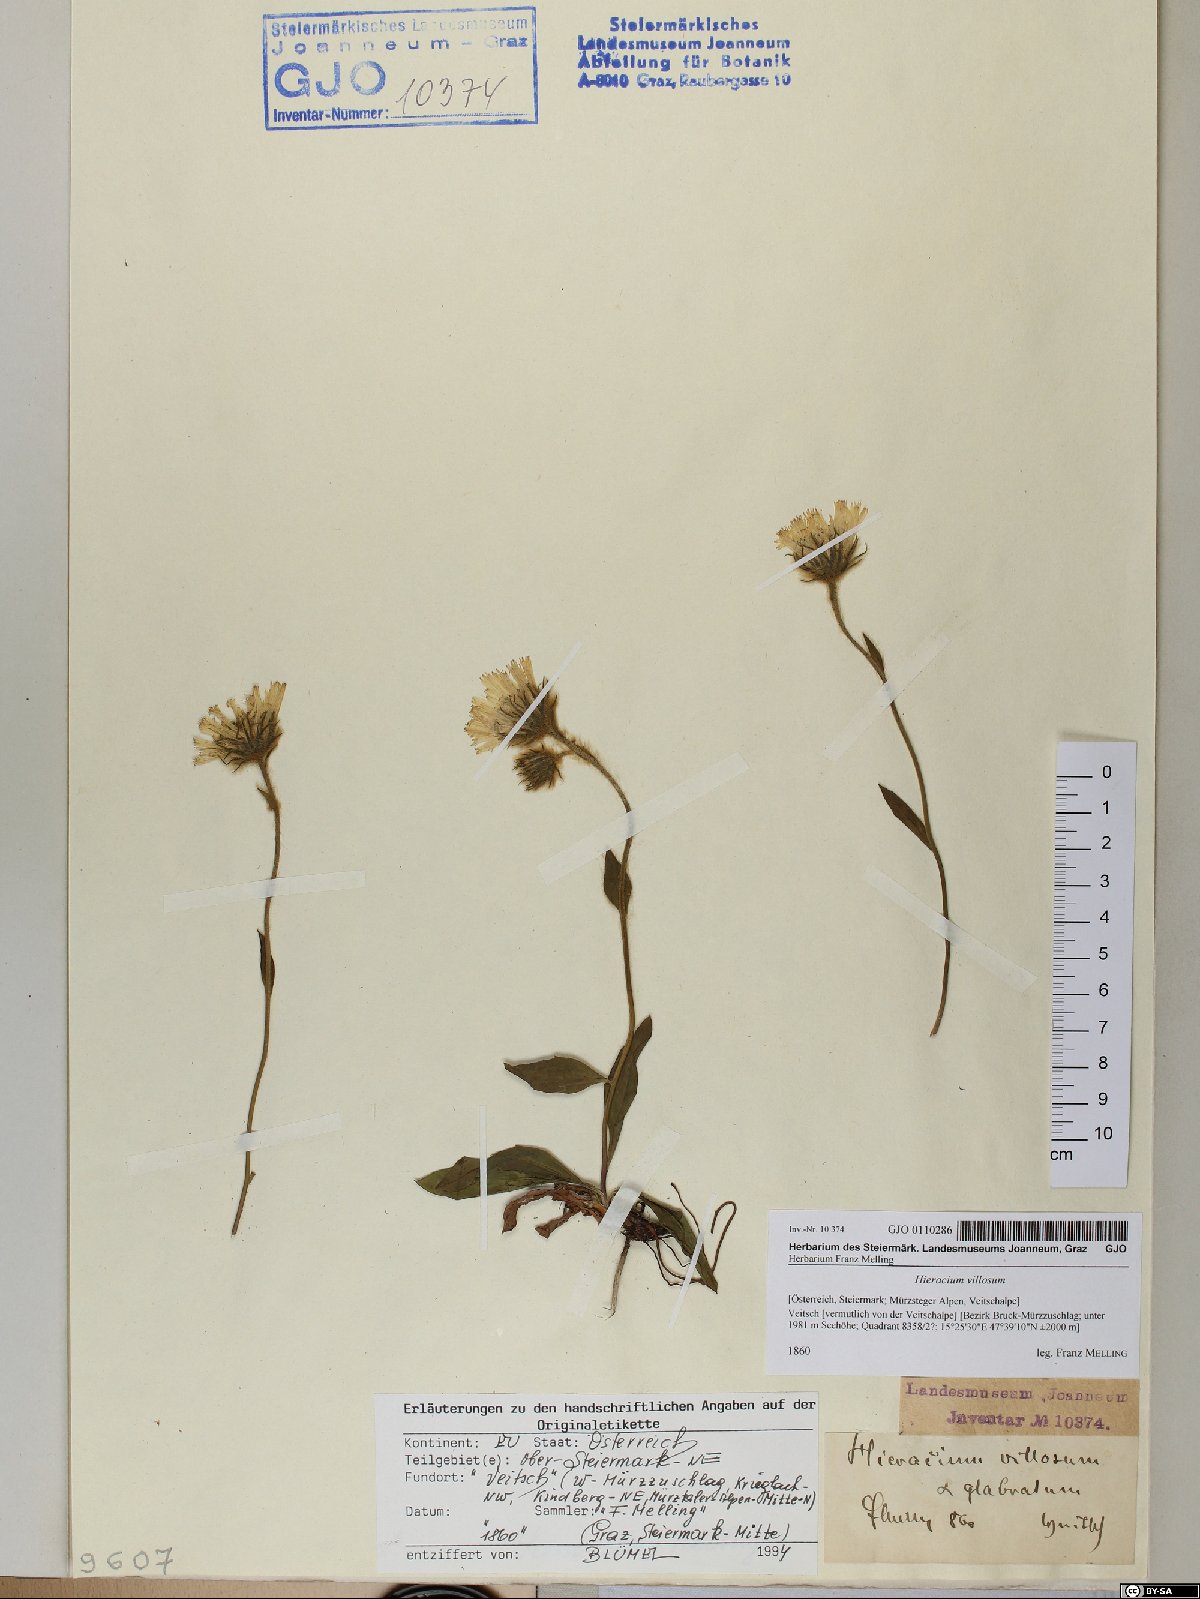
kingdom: Plantae
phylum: Tracheophyta
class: Magnoliopsida
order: Asterales
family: Asteraceae
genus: Hieracium
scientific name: Hieracium villosum
